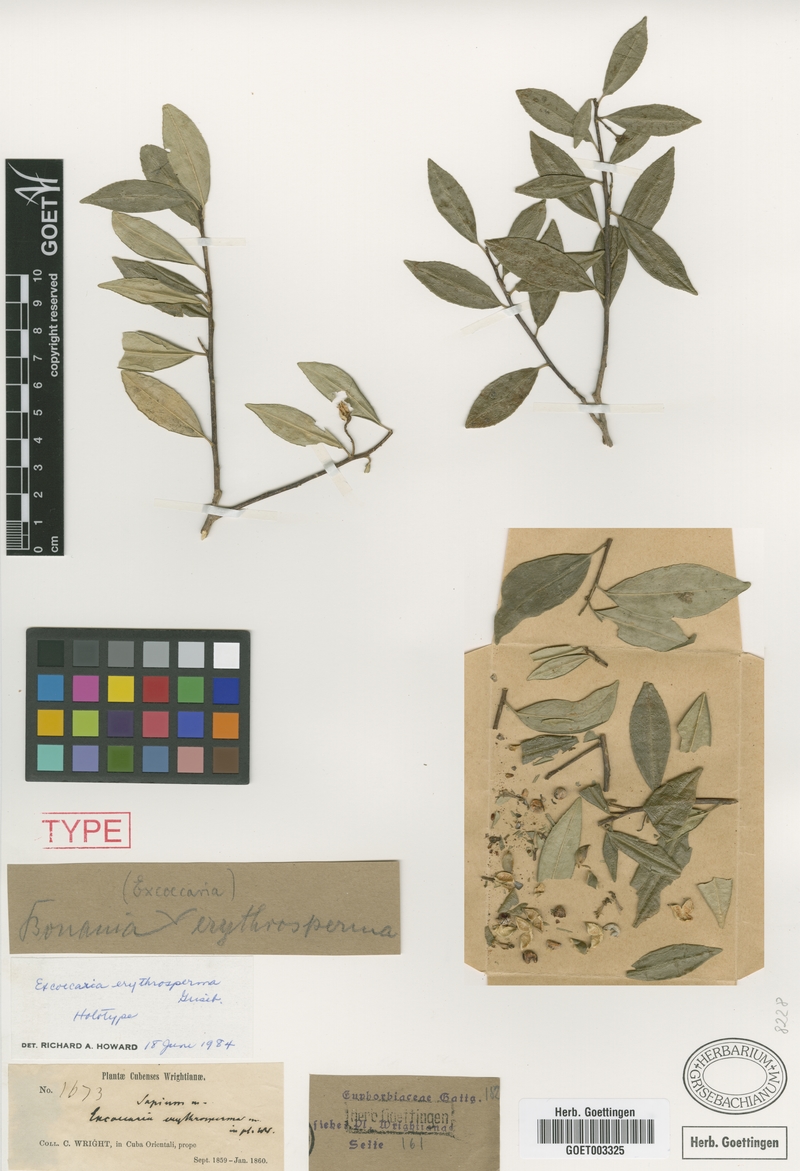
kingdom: Plantae
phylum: Tracheophyta
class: Magnoliopsida
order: Malpighiales
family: Euphorbiaceae
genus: Bonania
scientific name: Bonania erythrosperma
